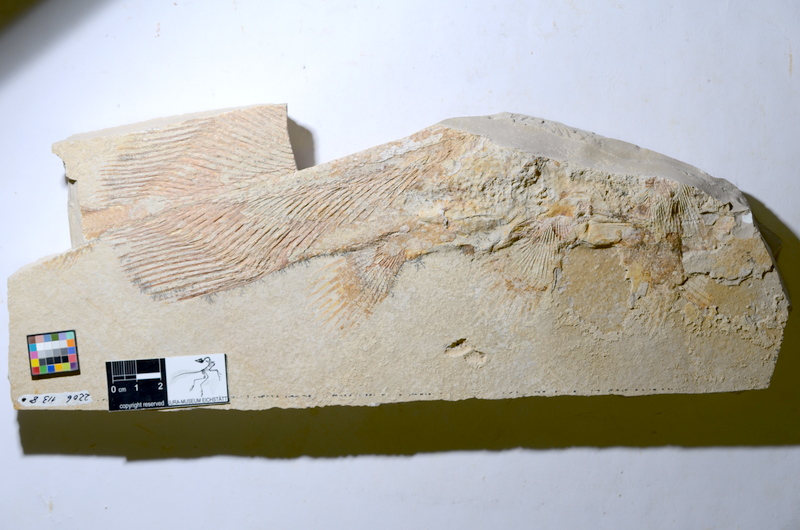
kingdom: Animalia
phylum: Chordata
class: Coelacanthi
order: Coelacanthiformes
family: Latimeroidea
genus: Undina
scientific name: Undina penicillata
